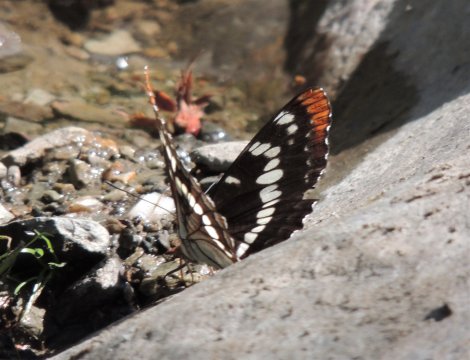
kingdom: Animalia
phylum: Arthropoda
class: Insecta
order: Lepidoptera
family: Nymphalidae
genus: Limenitis
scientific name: Limenitis lorquini
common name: Lorquin's Admiral
